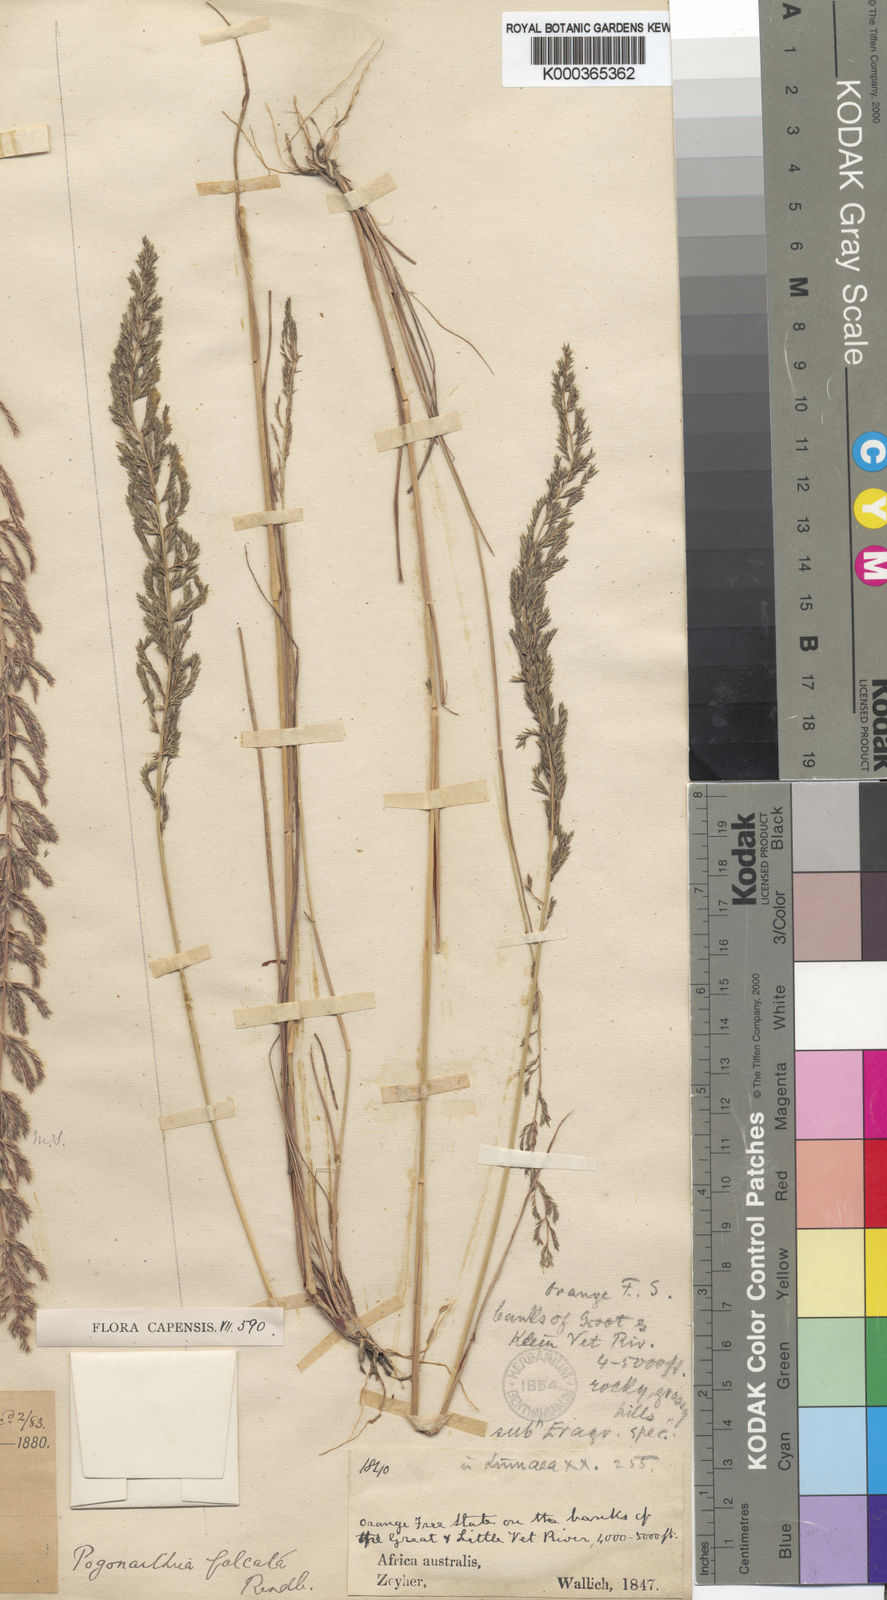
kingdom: Plantae
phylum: Tracheophyta
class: Liliopsida
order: Poales
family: Poaceae
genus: Pogonarthria
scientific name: Pogonarthria squarrosa
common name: Grass
